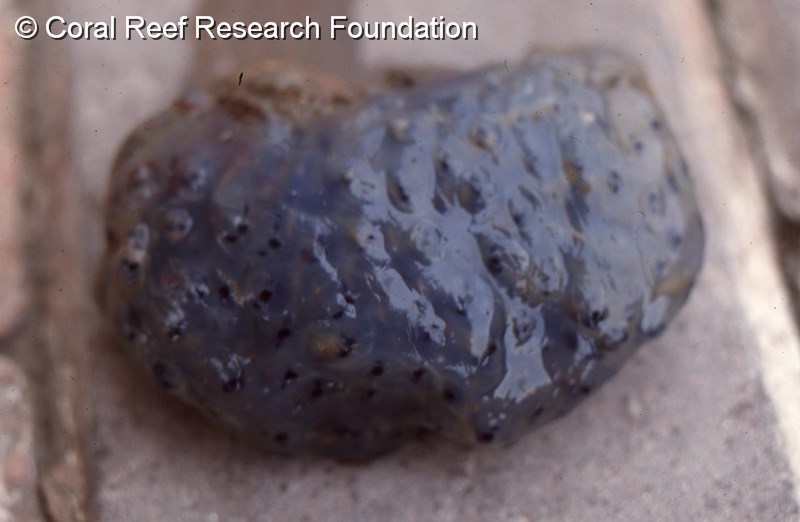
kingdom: Animalia
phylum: Chordata
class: Ascidiacea
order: Aplousobranchia
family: Clavelinidae
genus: Clavelina
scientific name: Clavelina steenbrasensis
